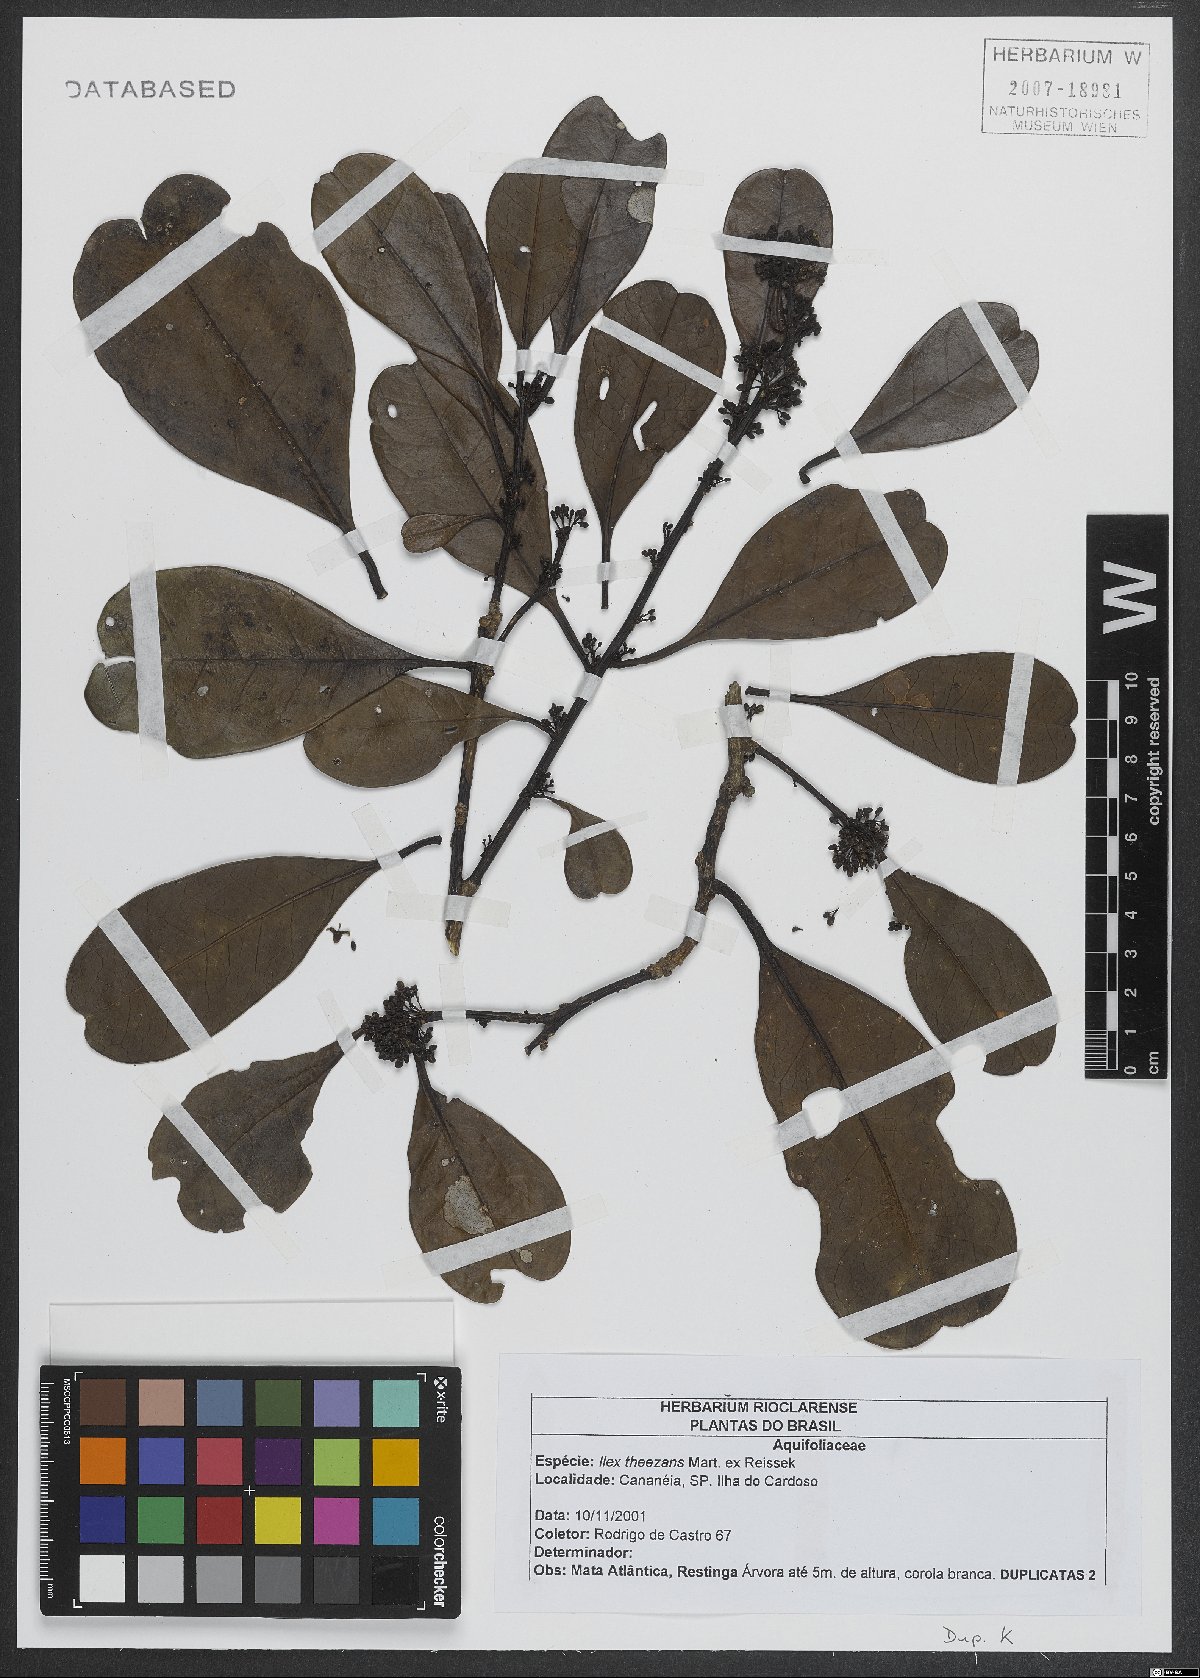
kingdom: Plantae
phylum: Tracheophyta
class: Magnoliopsida
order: Aquifoliales
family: Aquifoliaceae
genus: Ilex
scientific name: Ilex theezans
